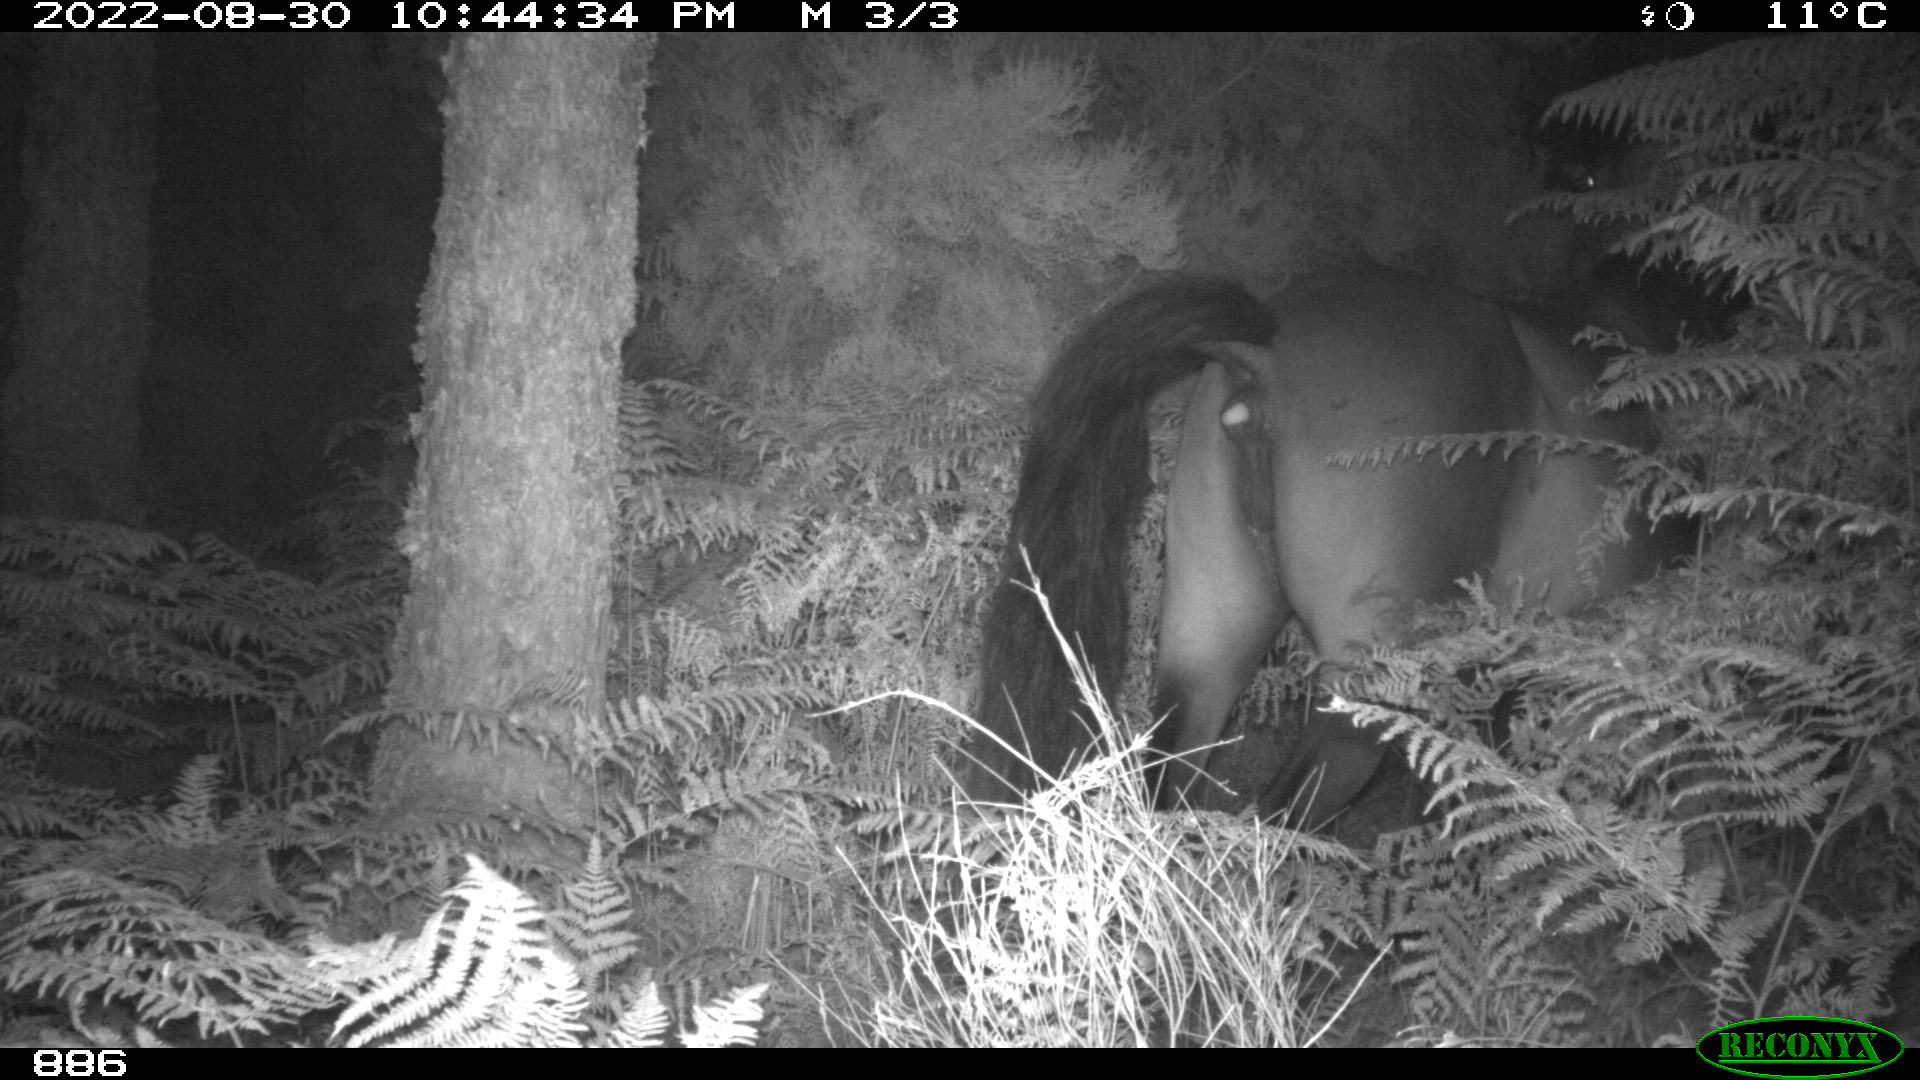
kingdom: Animalia
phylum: Chordata
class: Mammalia
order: Perissodactyla
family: Equidae
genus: Equus
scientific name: Equus caballus
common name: Horse
